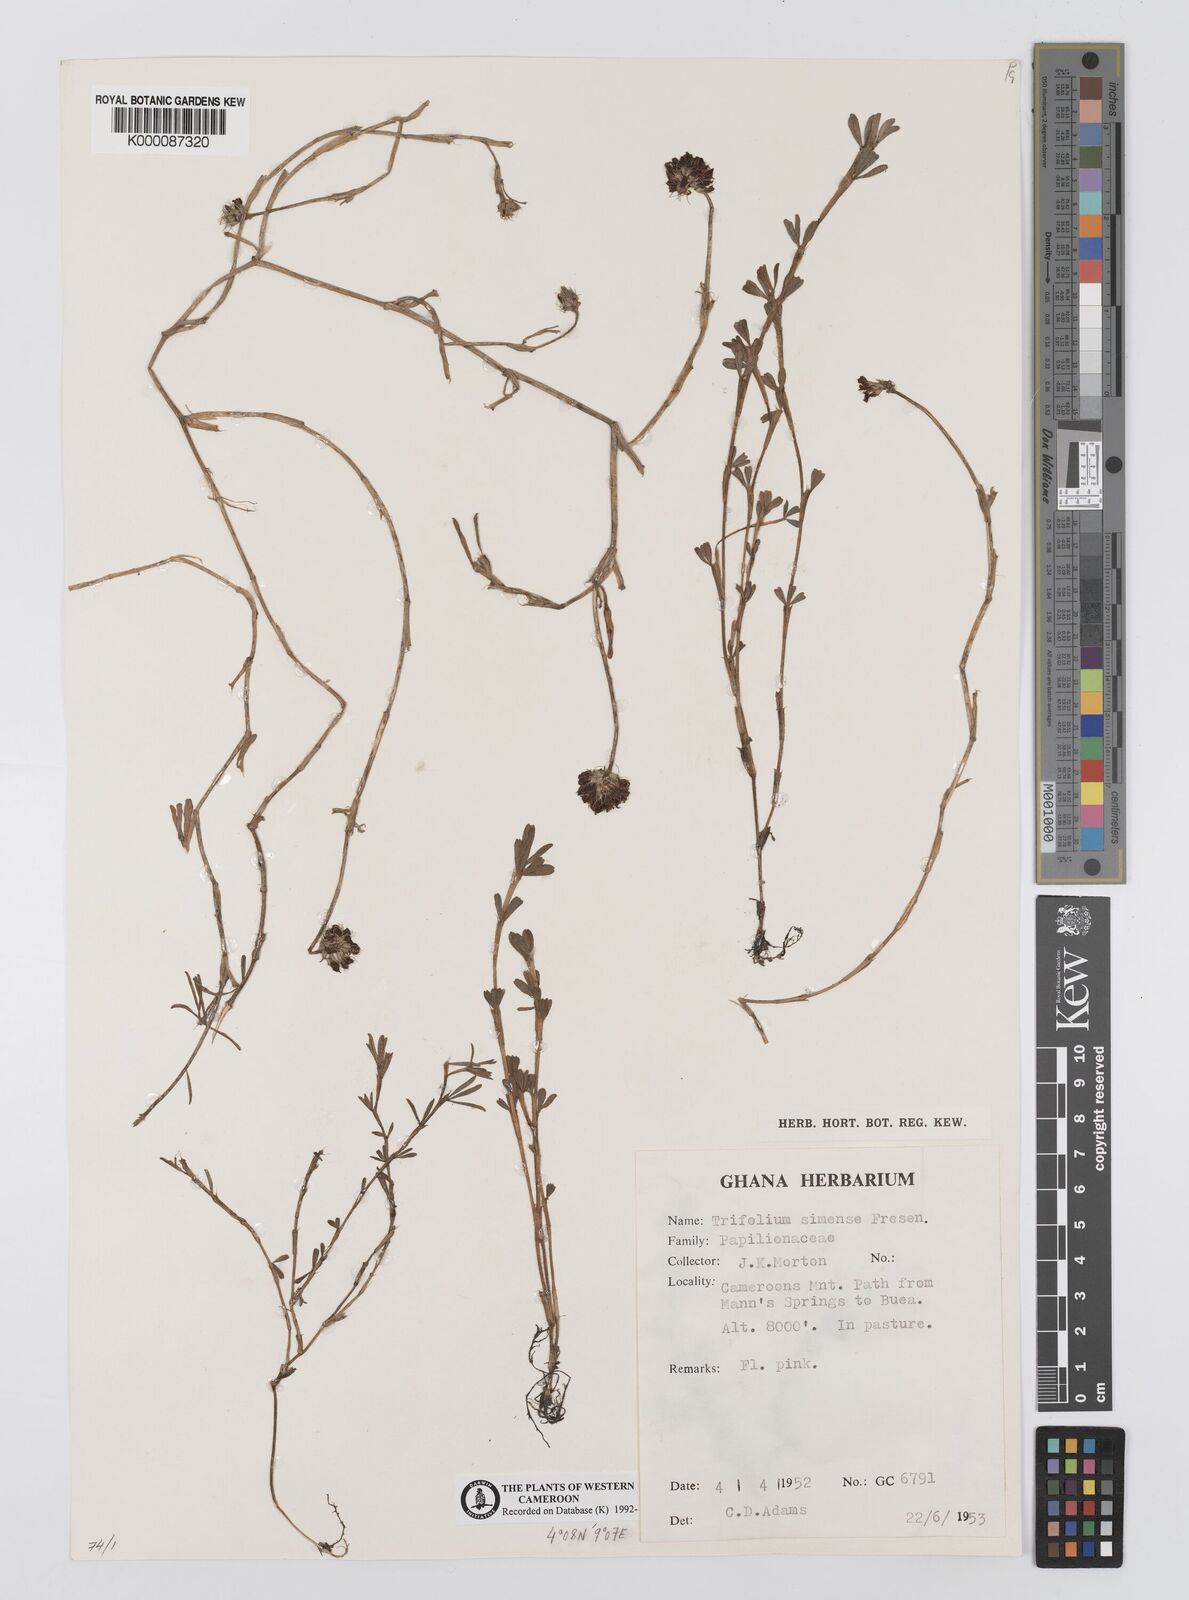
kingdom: Plantae
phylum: Tracheophyta
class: Magnoliopsida
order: Fabales
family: Fabaceae
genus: Trifolium
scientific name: Trifolium simense
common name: Simen clover
